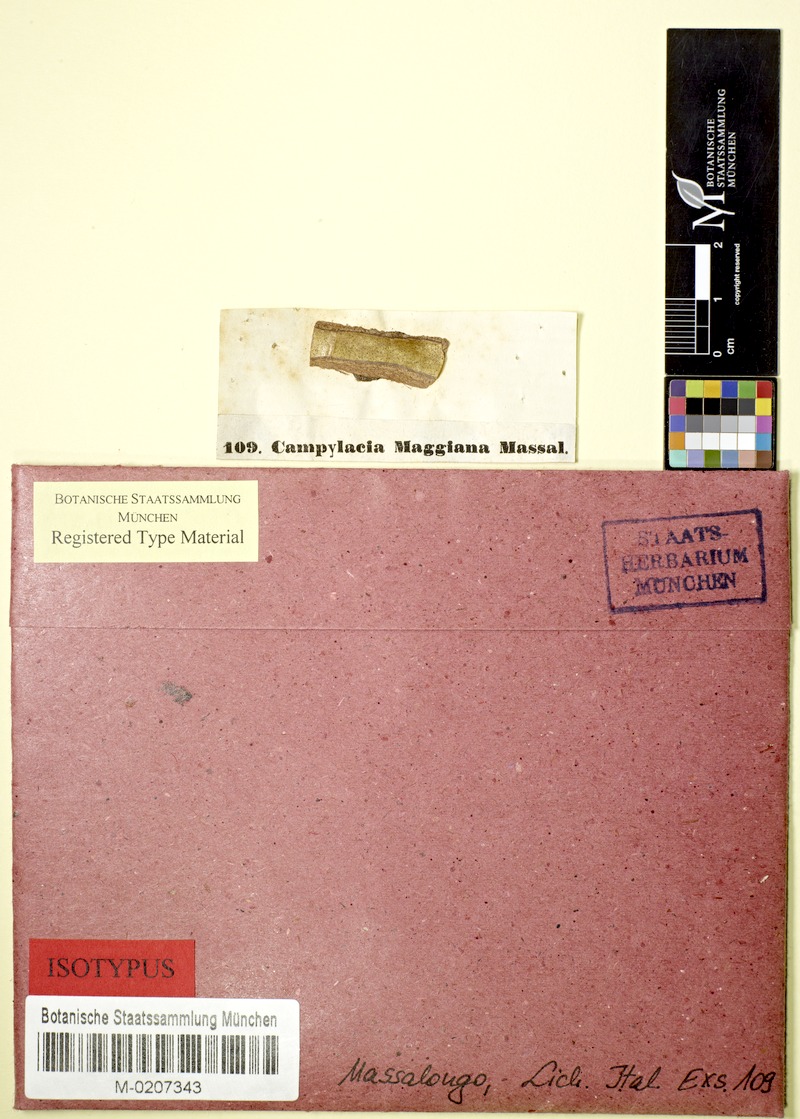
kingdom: Fungi
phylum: Ascomycota
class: Dothideomycetes
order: Pleosporales
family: Naetrocymbaceae
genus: Leptorhaphis
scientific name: Leptorhaphis maggiana
